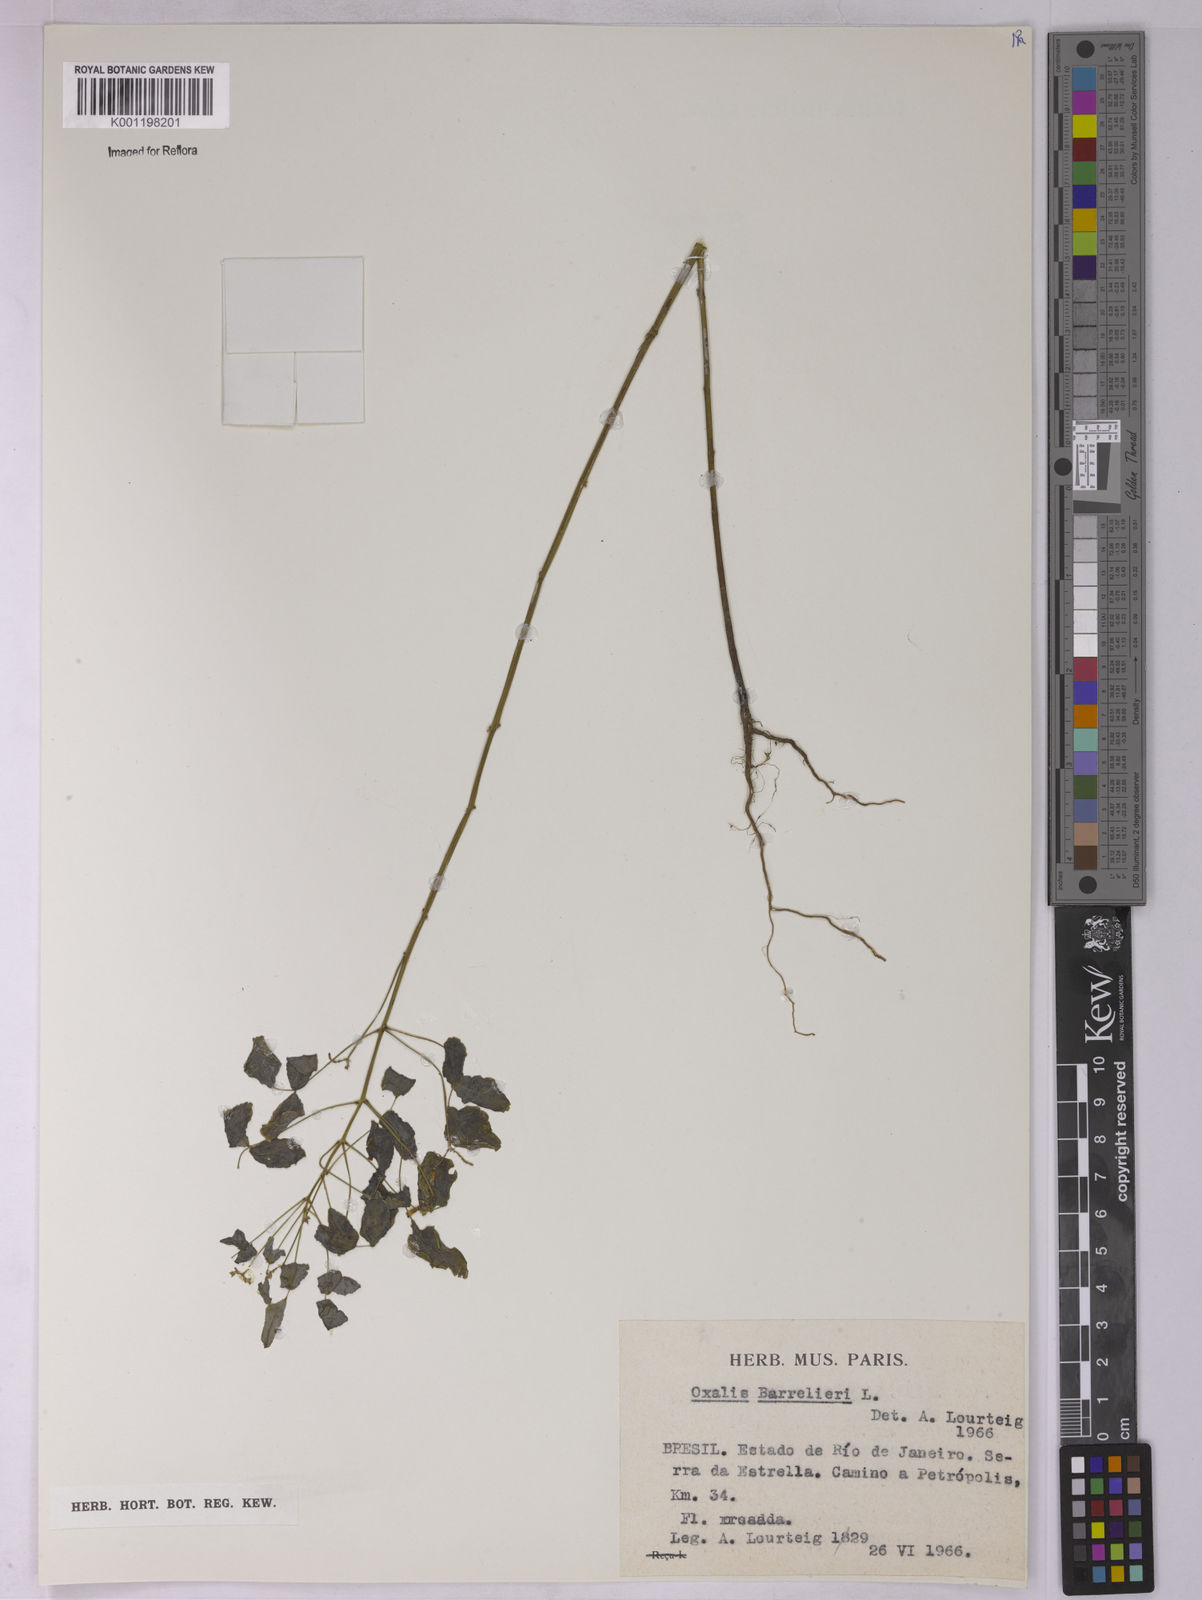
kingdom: Plantae
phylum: Tracheophyta
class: Magnoliopsida
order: Oxalidales
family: Oxalidaceae
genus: Oxalis
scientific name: Oxalis barrelieri
